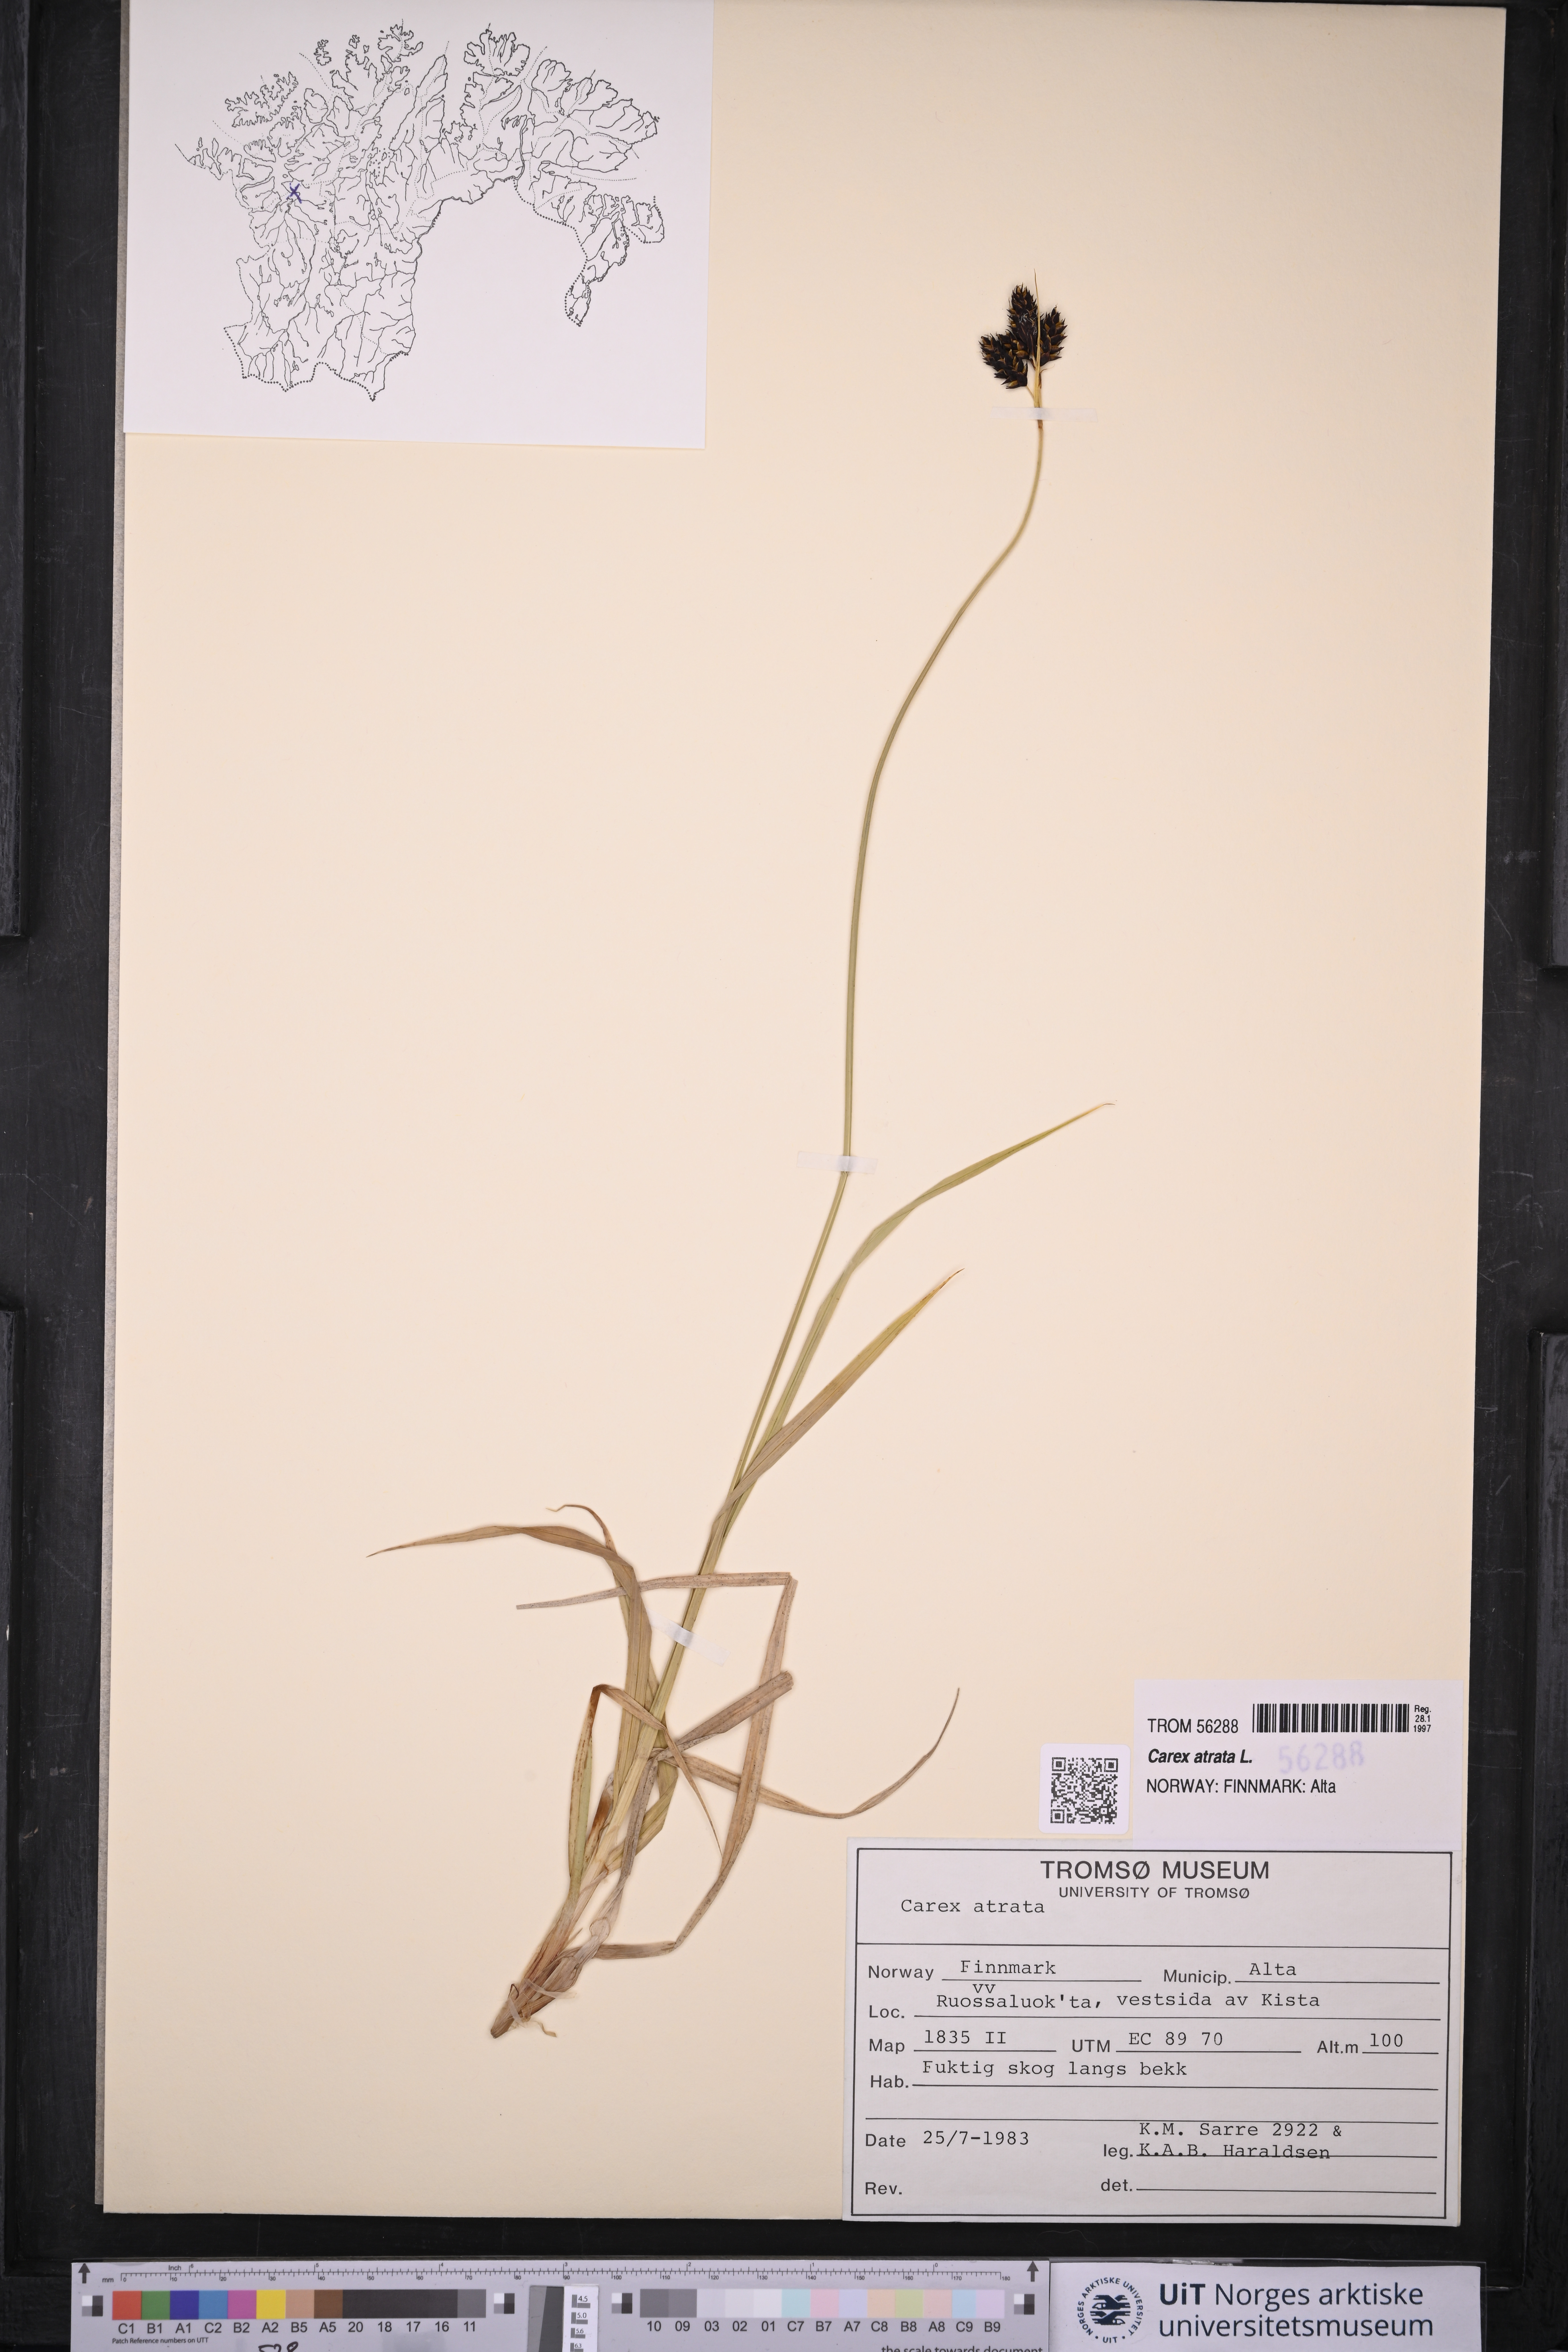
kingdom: Plantae
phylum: Tracheophyta
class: Liliopsida
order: Poales
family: Cyperaceae
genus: Carex
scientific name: Carex atrata
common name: Black alpine sedge
